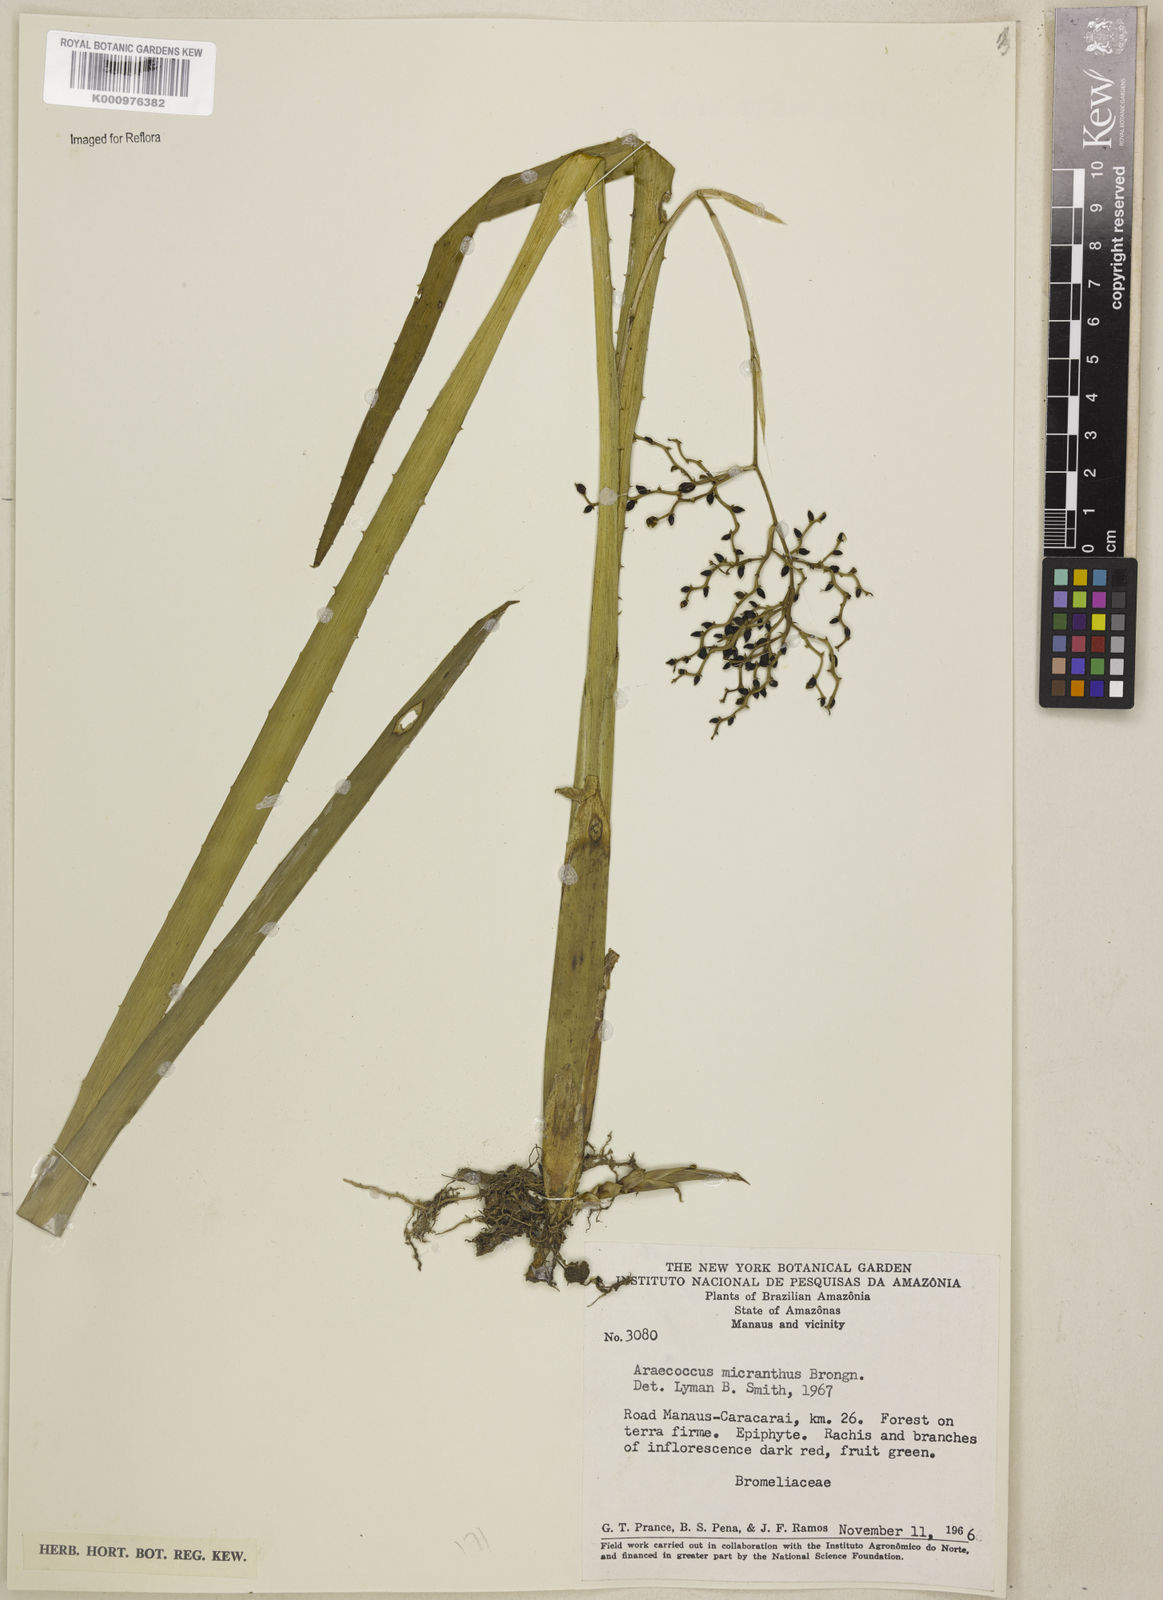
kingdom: Plantae
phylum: Tracheophyta
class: Liliopsida
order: Poales
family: Bromeliaceae
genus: Araeococcus
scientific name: Araeococcus micranthus
